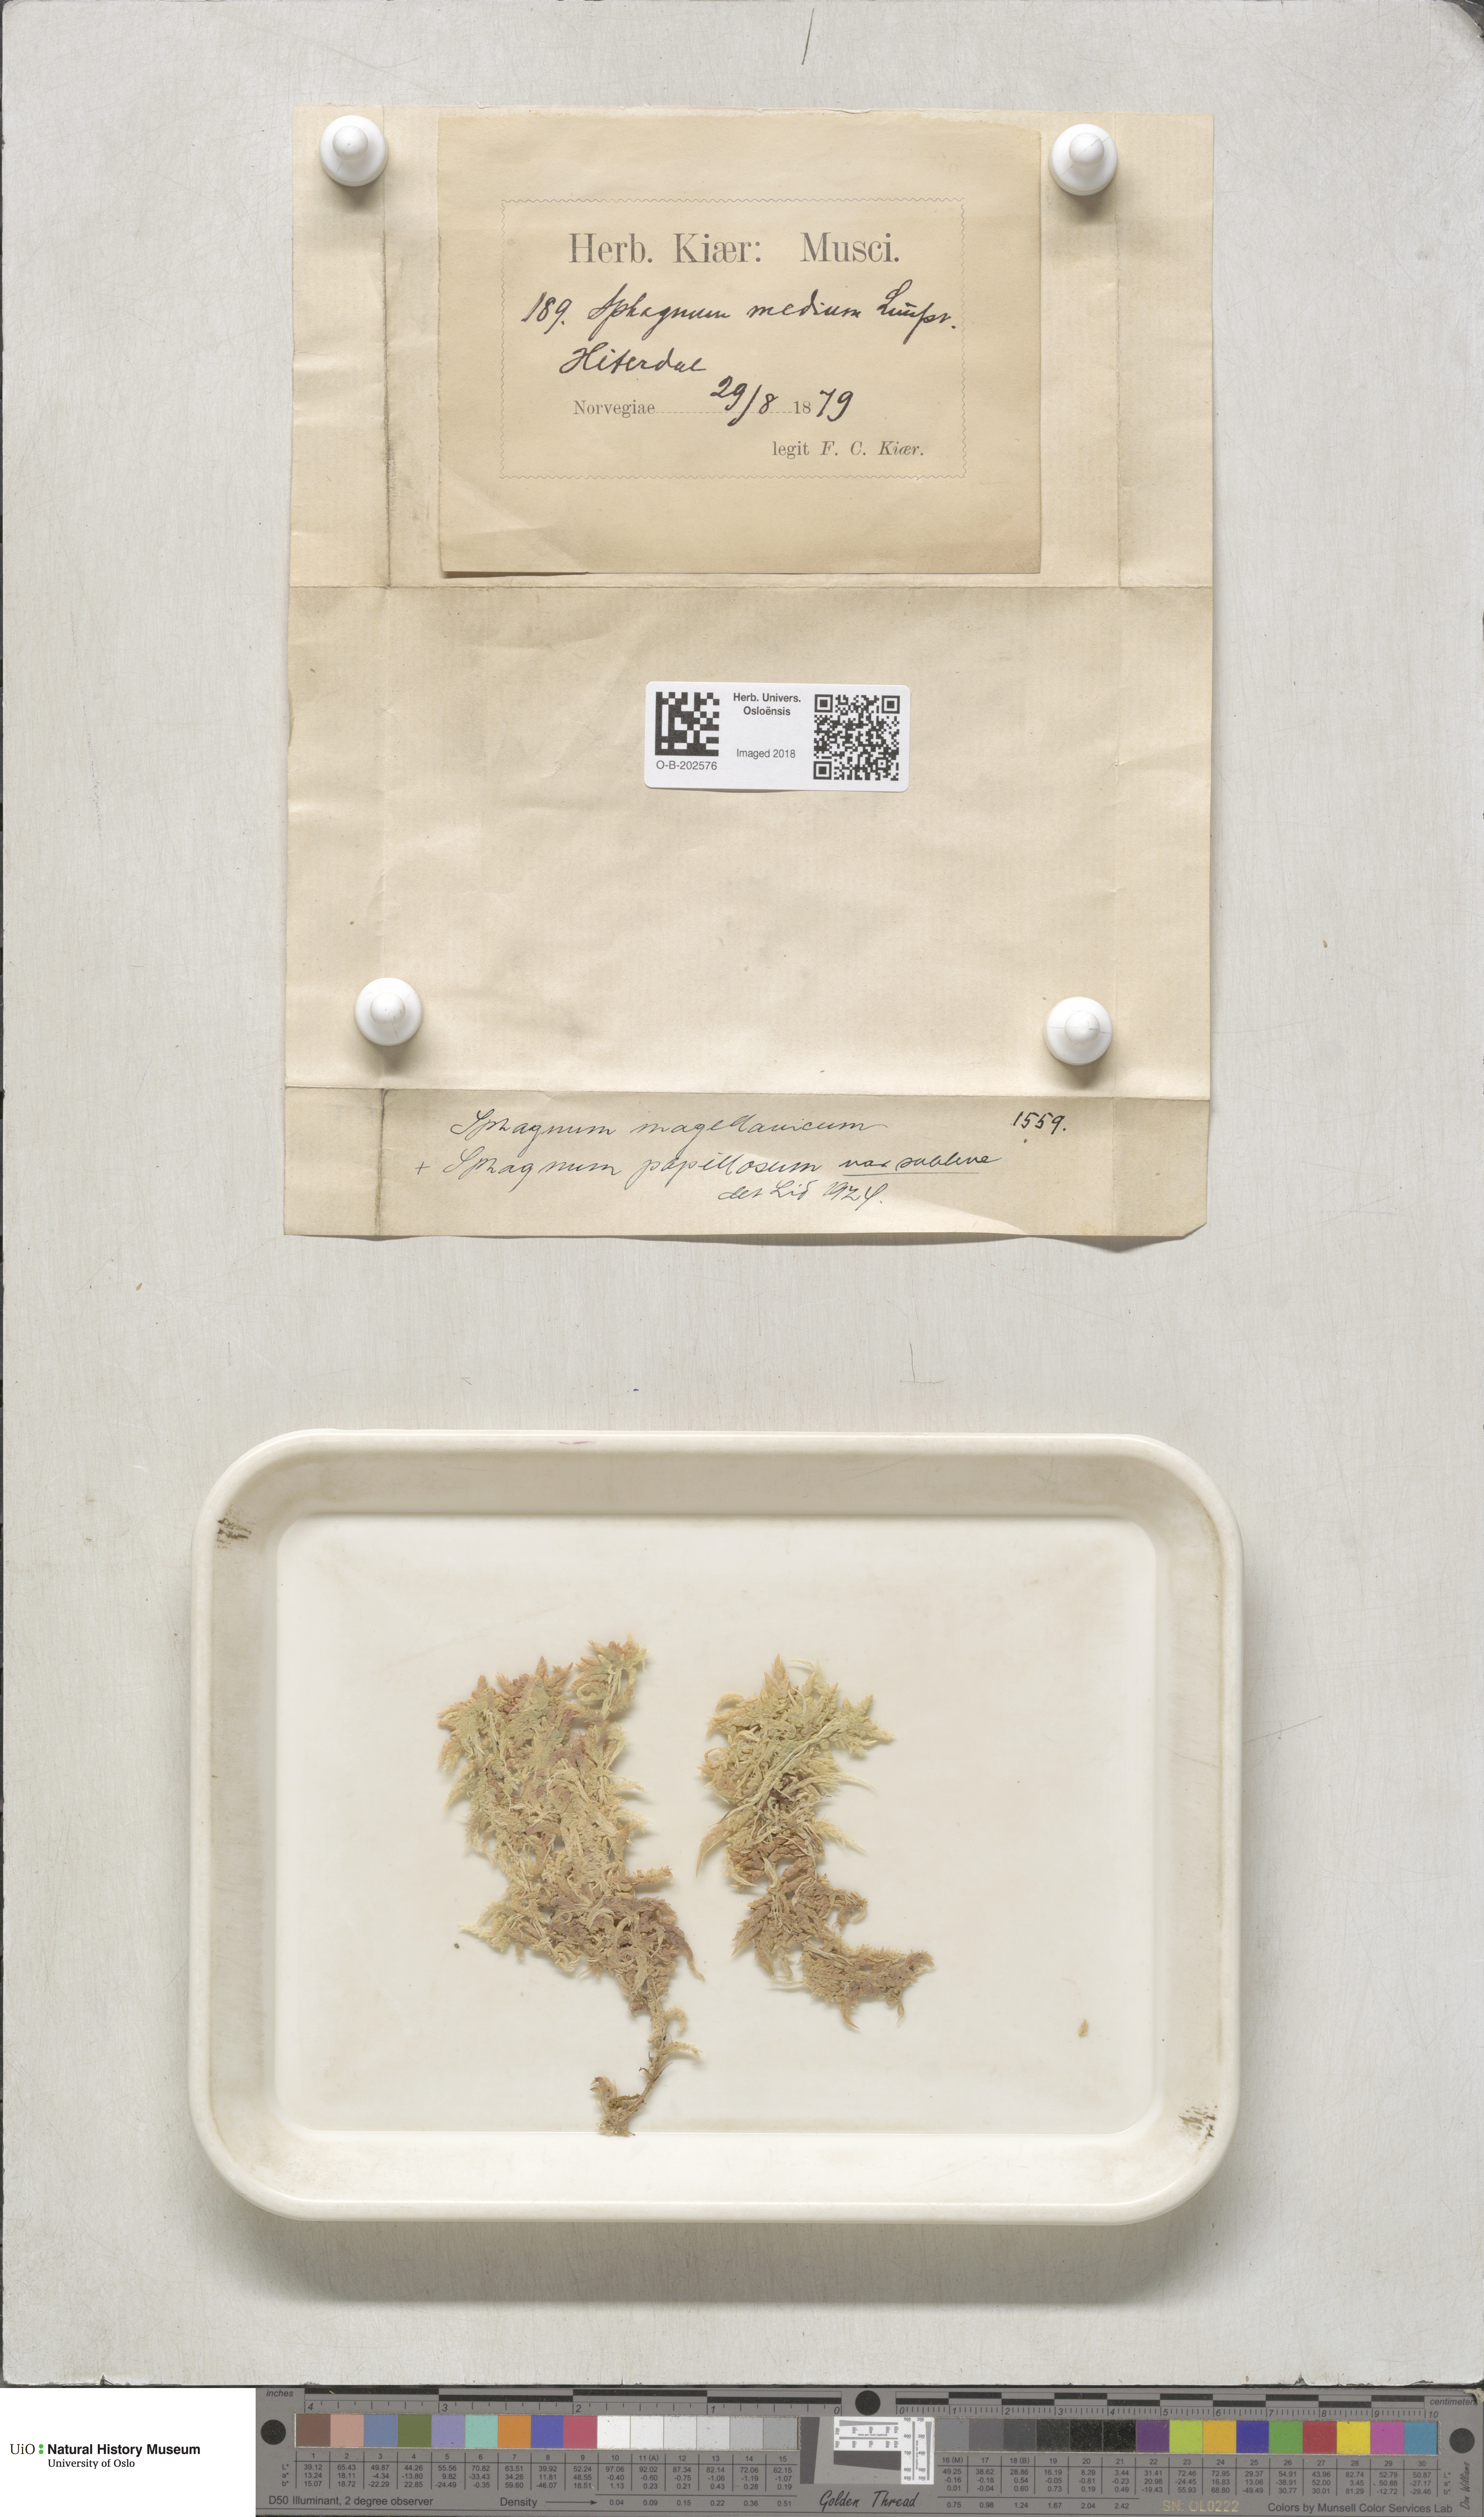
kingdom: Plantae
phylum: Bryophyta
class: Sphagnopsida
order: Sphagnales
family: Sphagnaceae
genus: Sphagnum
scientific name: Sphagnum magellanicum
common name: Magellan's peat moss
